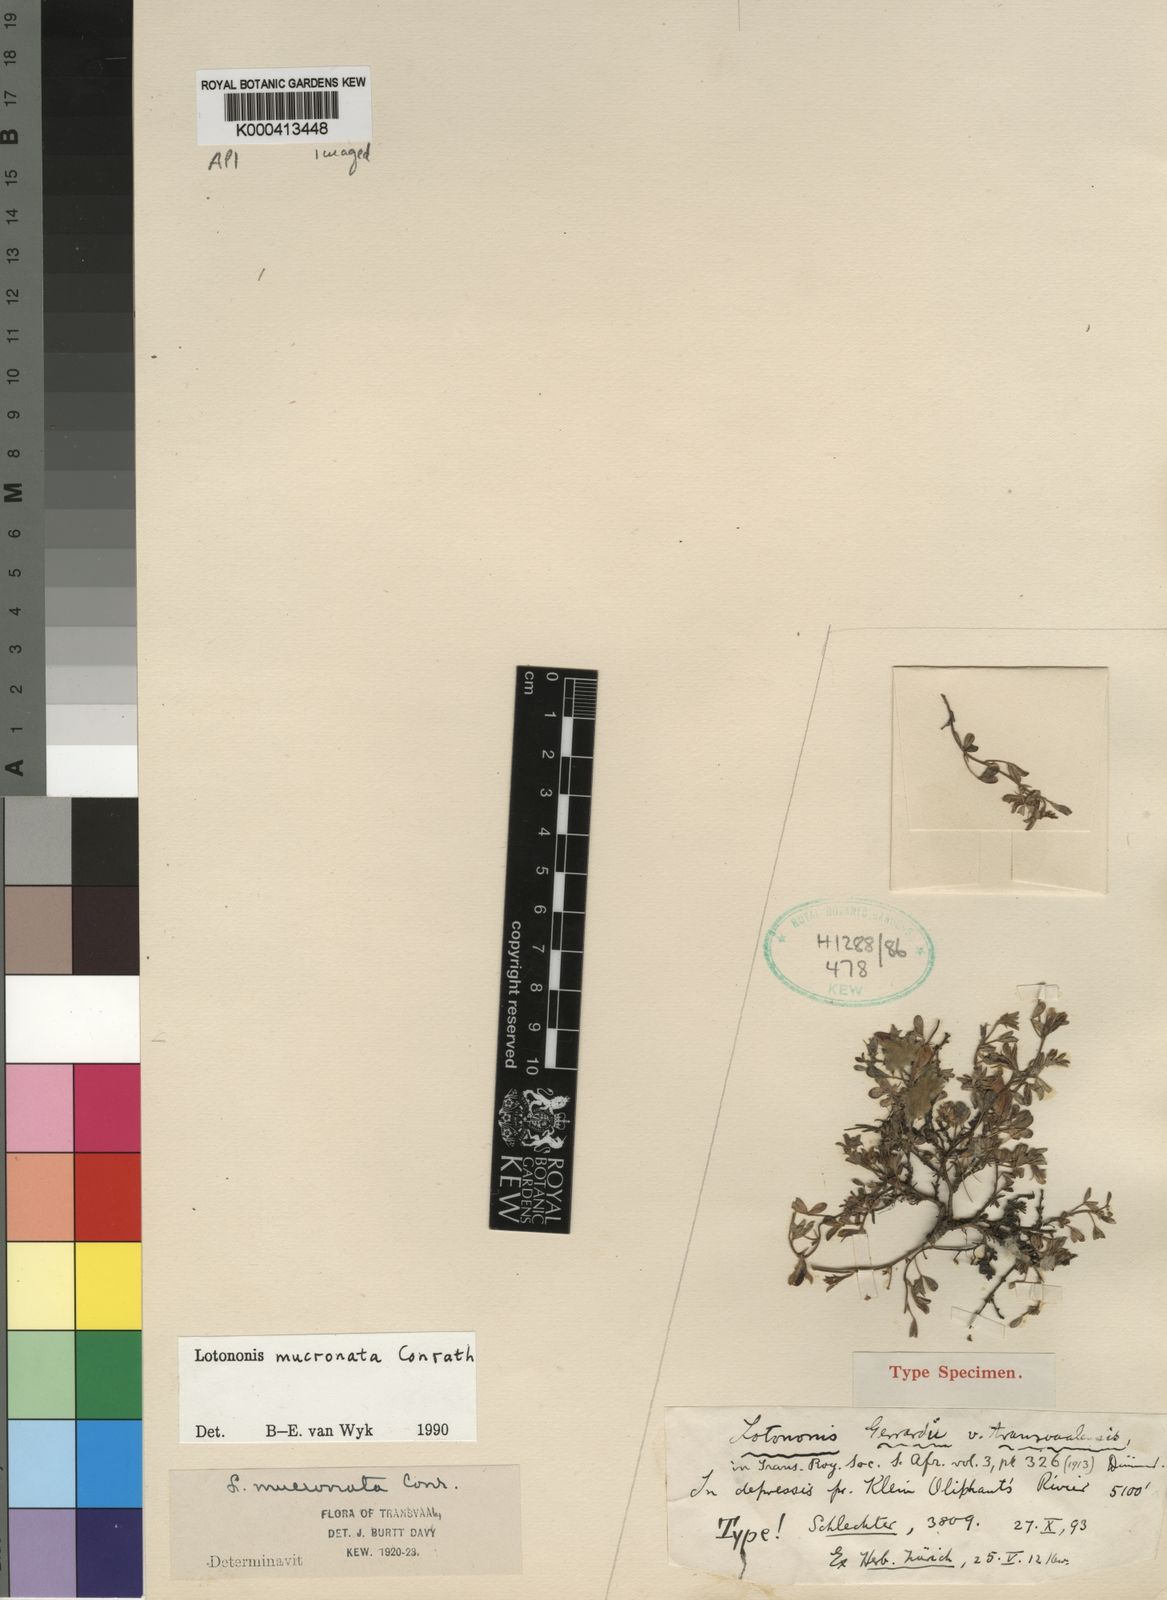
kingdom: Plantae
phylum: Tracheophyta
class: Magnoliopsida
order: Fabales
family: Fabaceae
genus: Leobordea
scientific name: Leobordea mucronata
